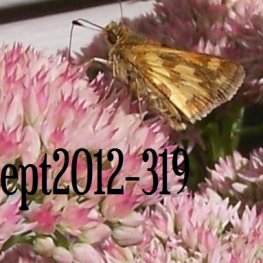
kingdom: Animalia
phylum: Arthropoda
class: Insecta
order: Lepidoptera
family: Hesperiidae
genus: Polites
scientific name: Polites coras
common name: Peck's Skipper
